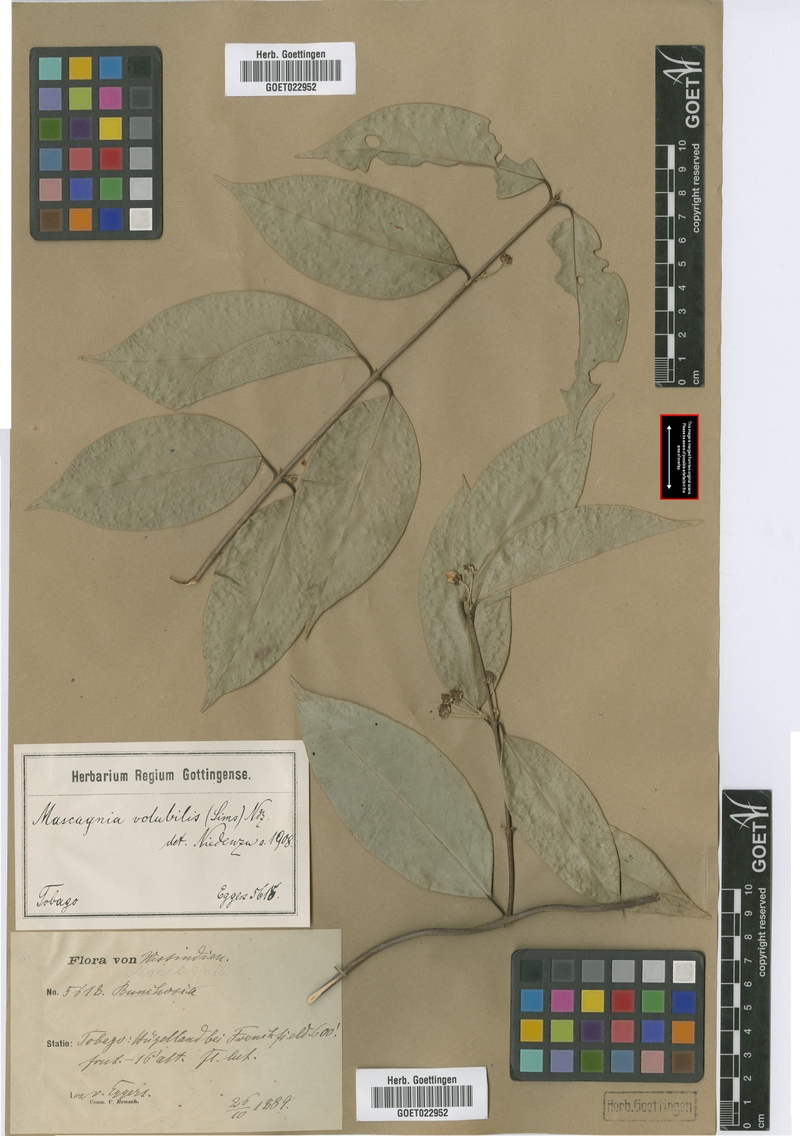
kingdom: Plantae
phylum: Tracheophyta
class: Magnoliopsida
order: Malpighiales
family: Malpighiaceae
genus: Carolus
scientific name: Carolus sinemariensis
